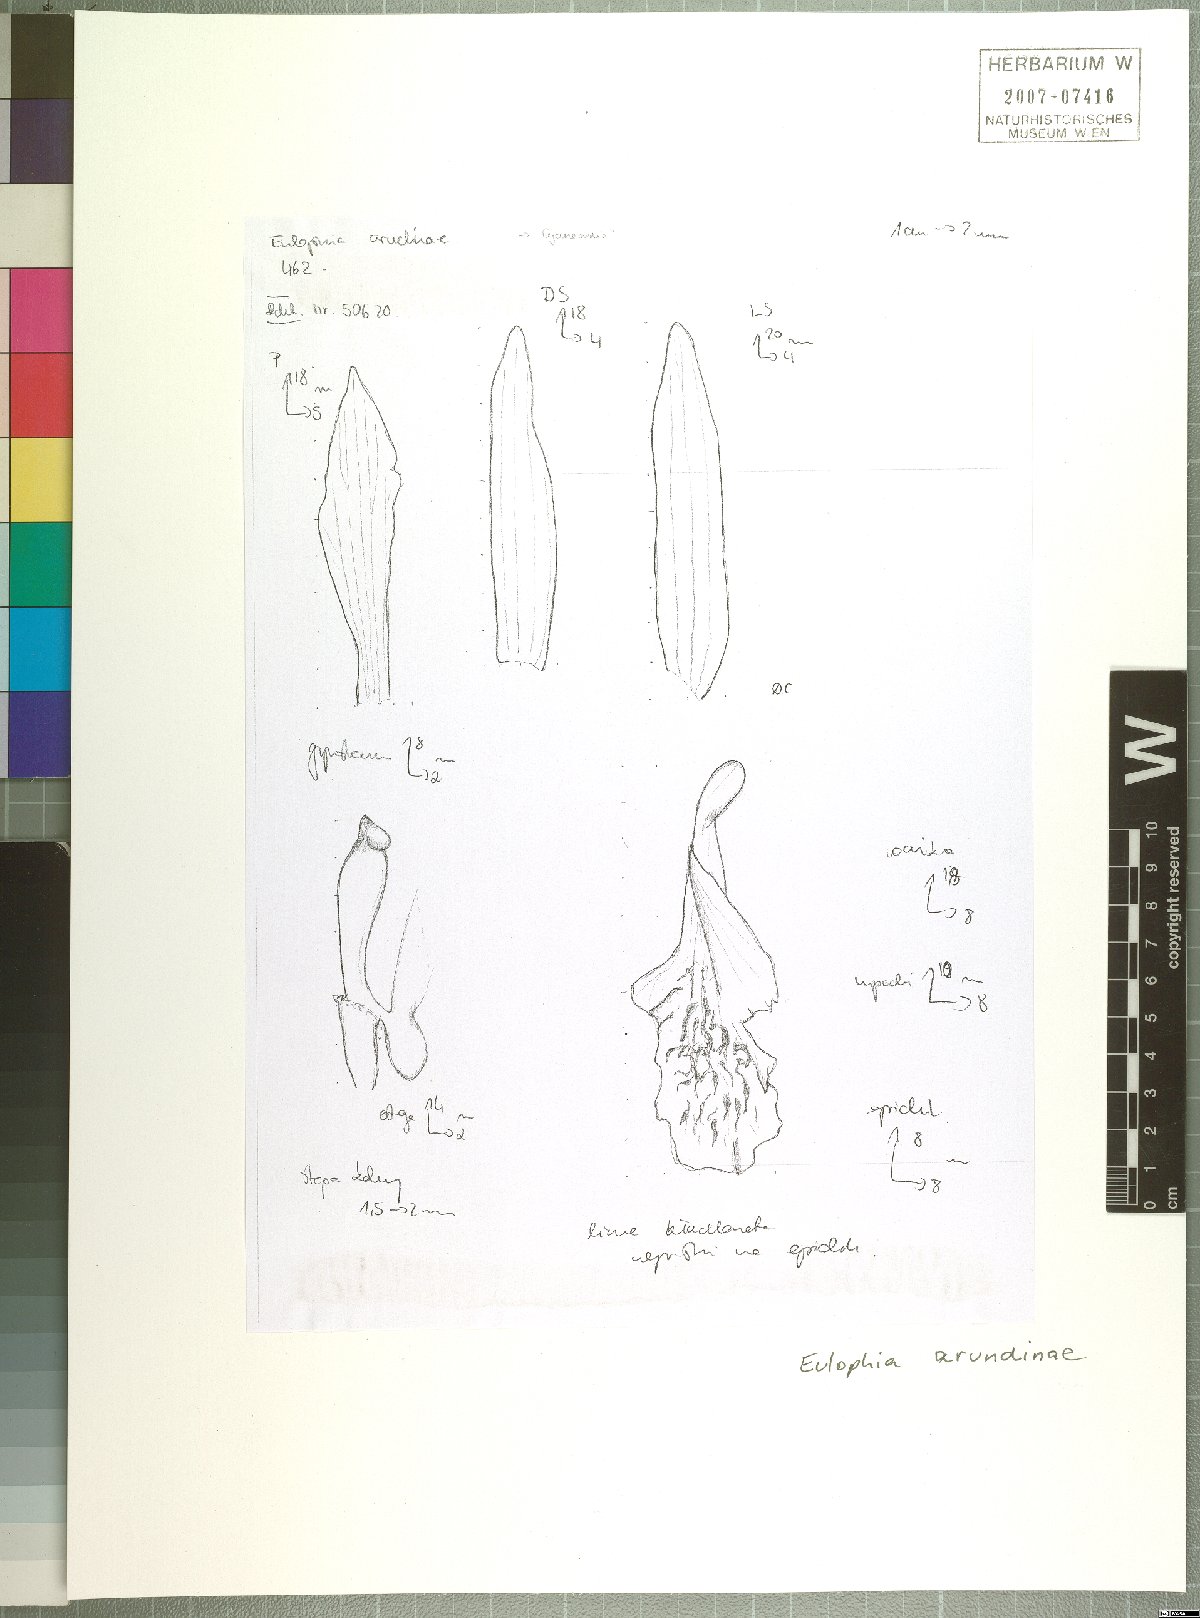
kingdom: Plantae
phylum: Tracheophyta
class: Liliopsida
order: Asparagales
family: Orchidaceae
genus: Cyanaeorchis
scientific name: Cyanaeorchis arundinae
